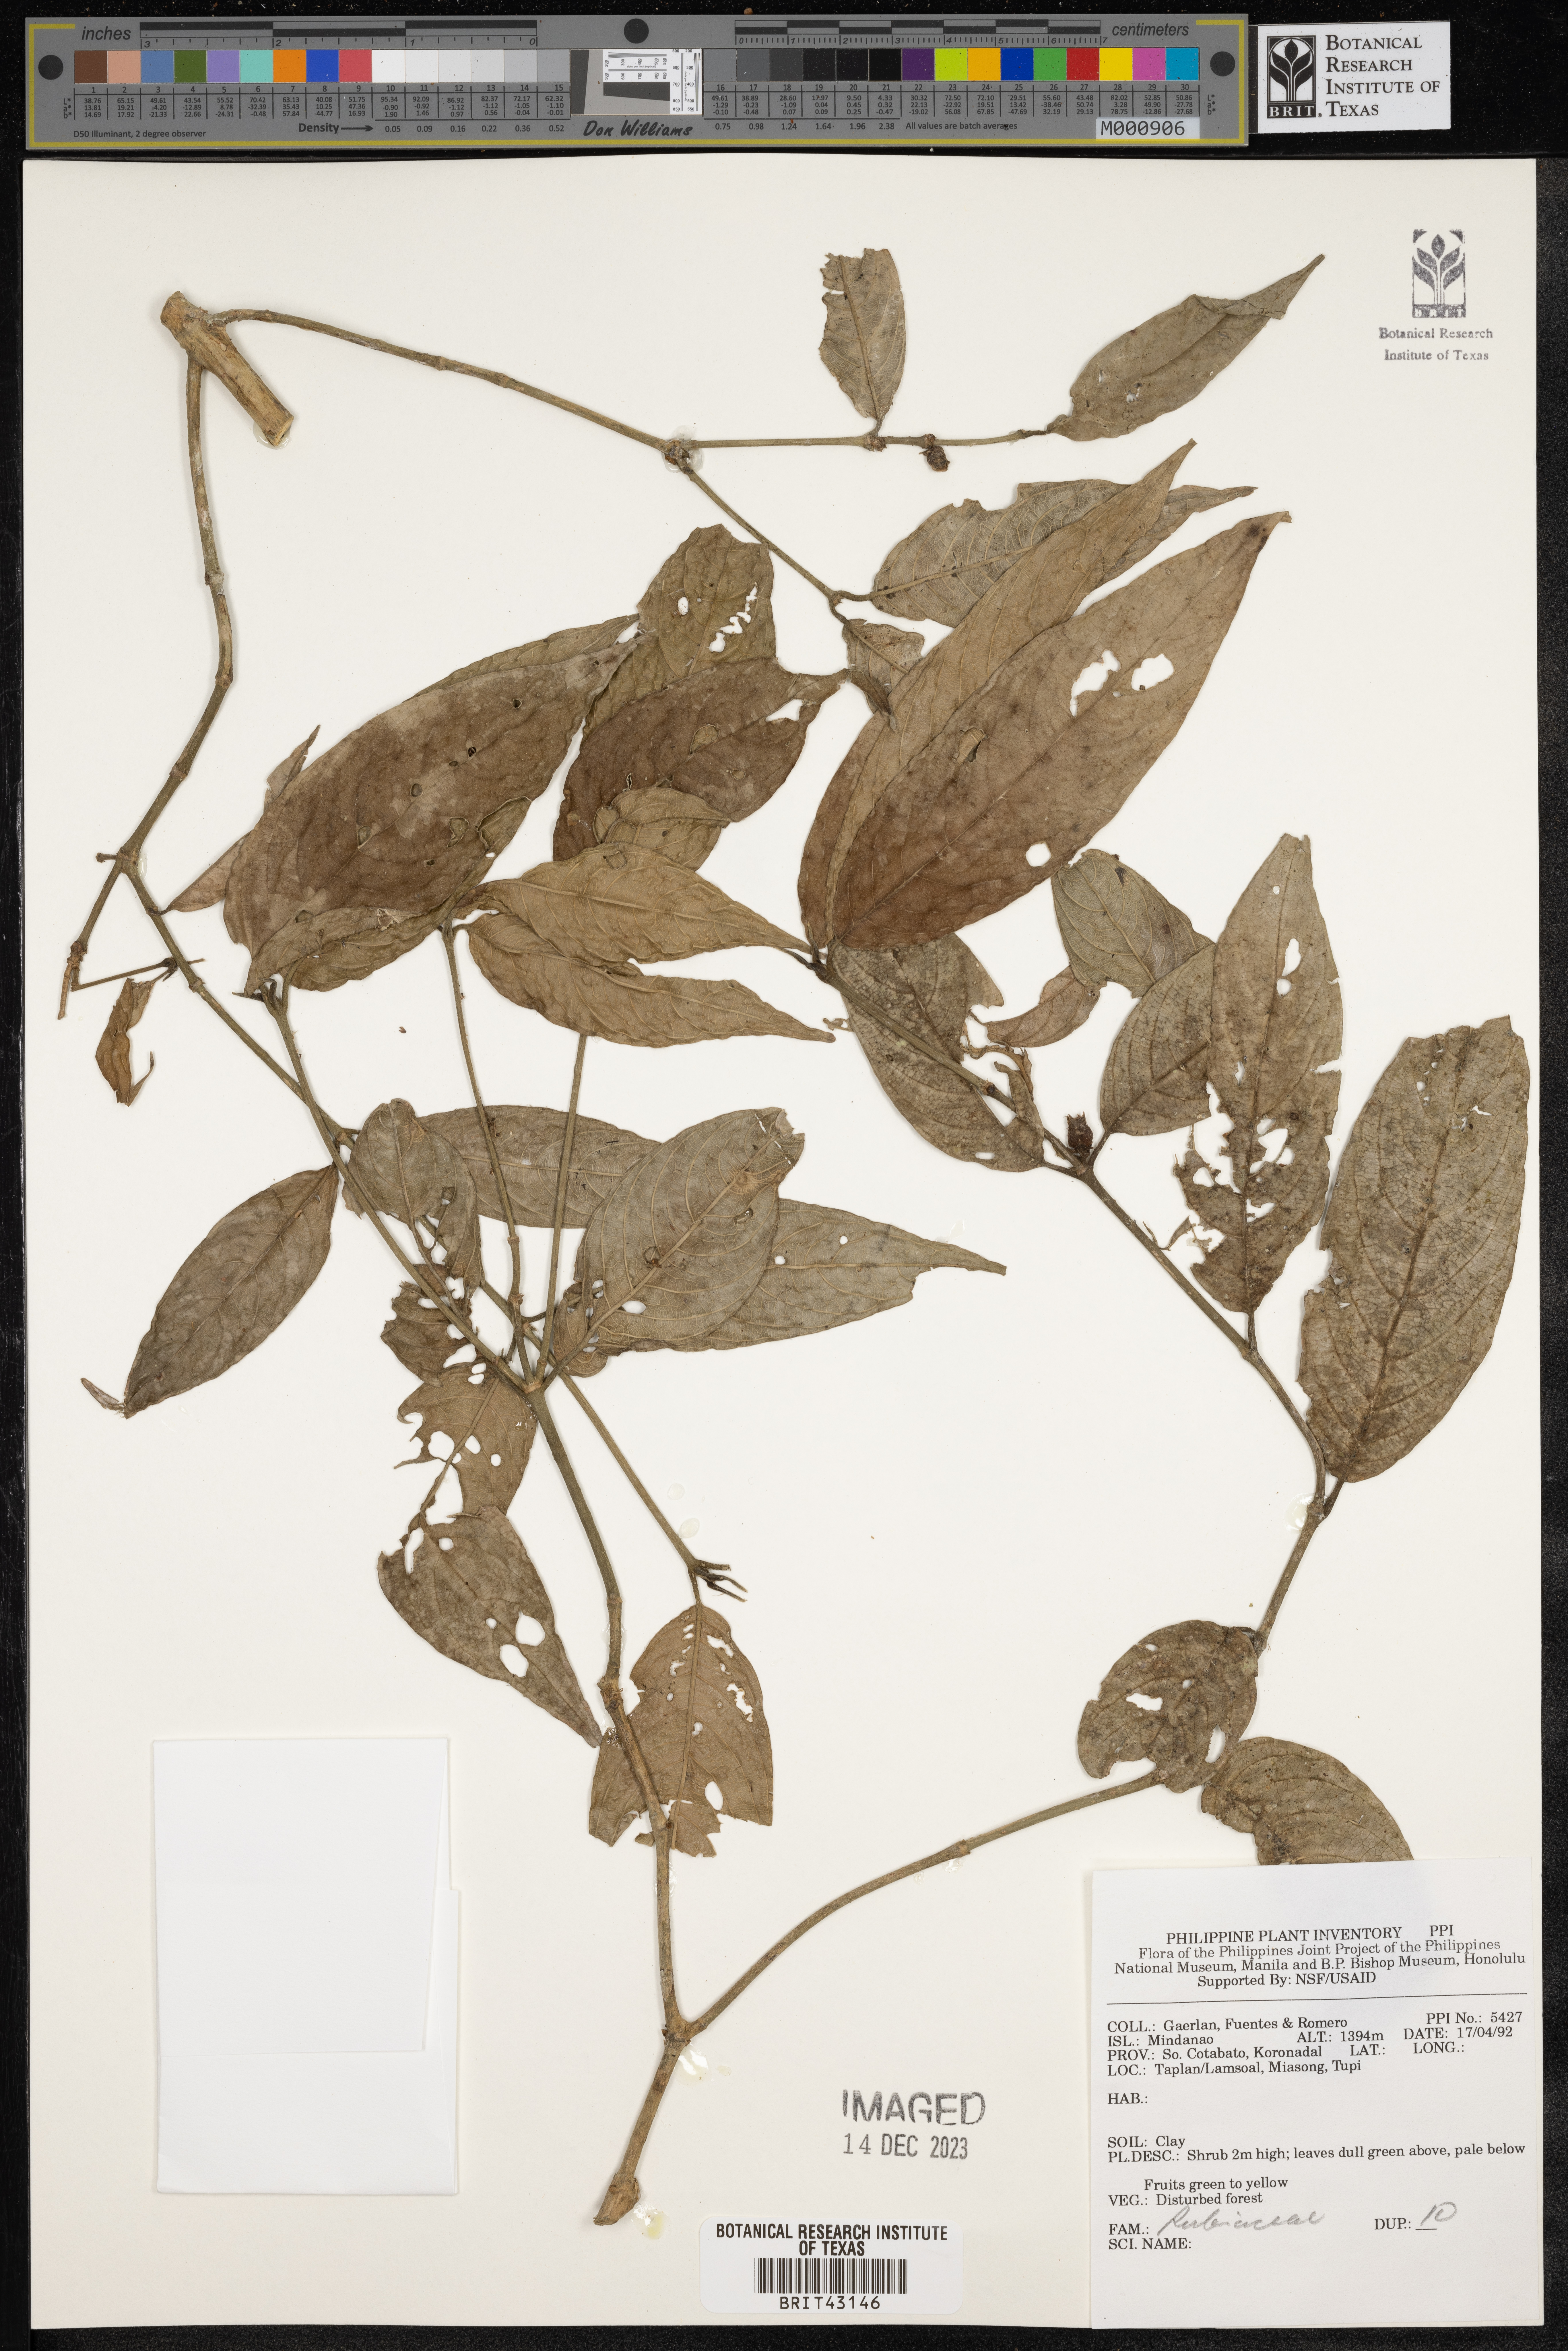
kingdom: Plantae
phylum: Tracheophyta
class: Magnoliopsida
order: Gentianales
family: Rubiaceae
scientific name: Rubiaceae
